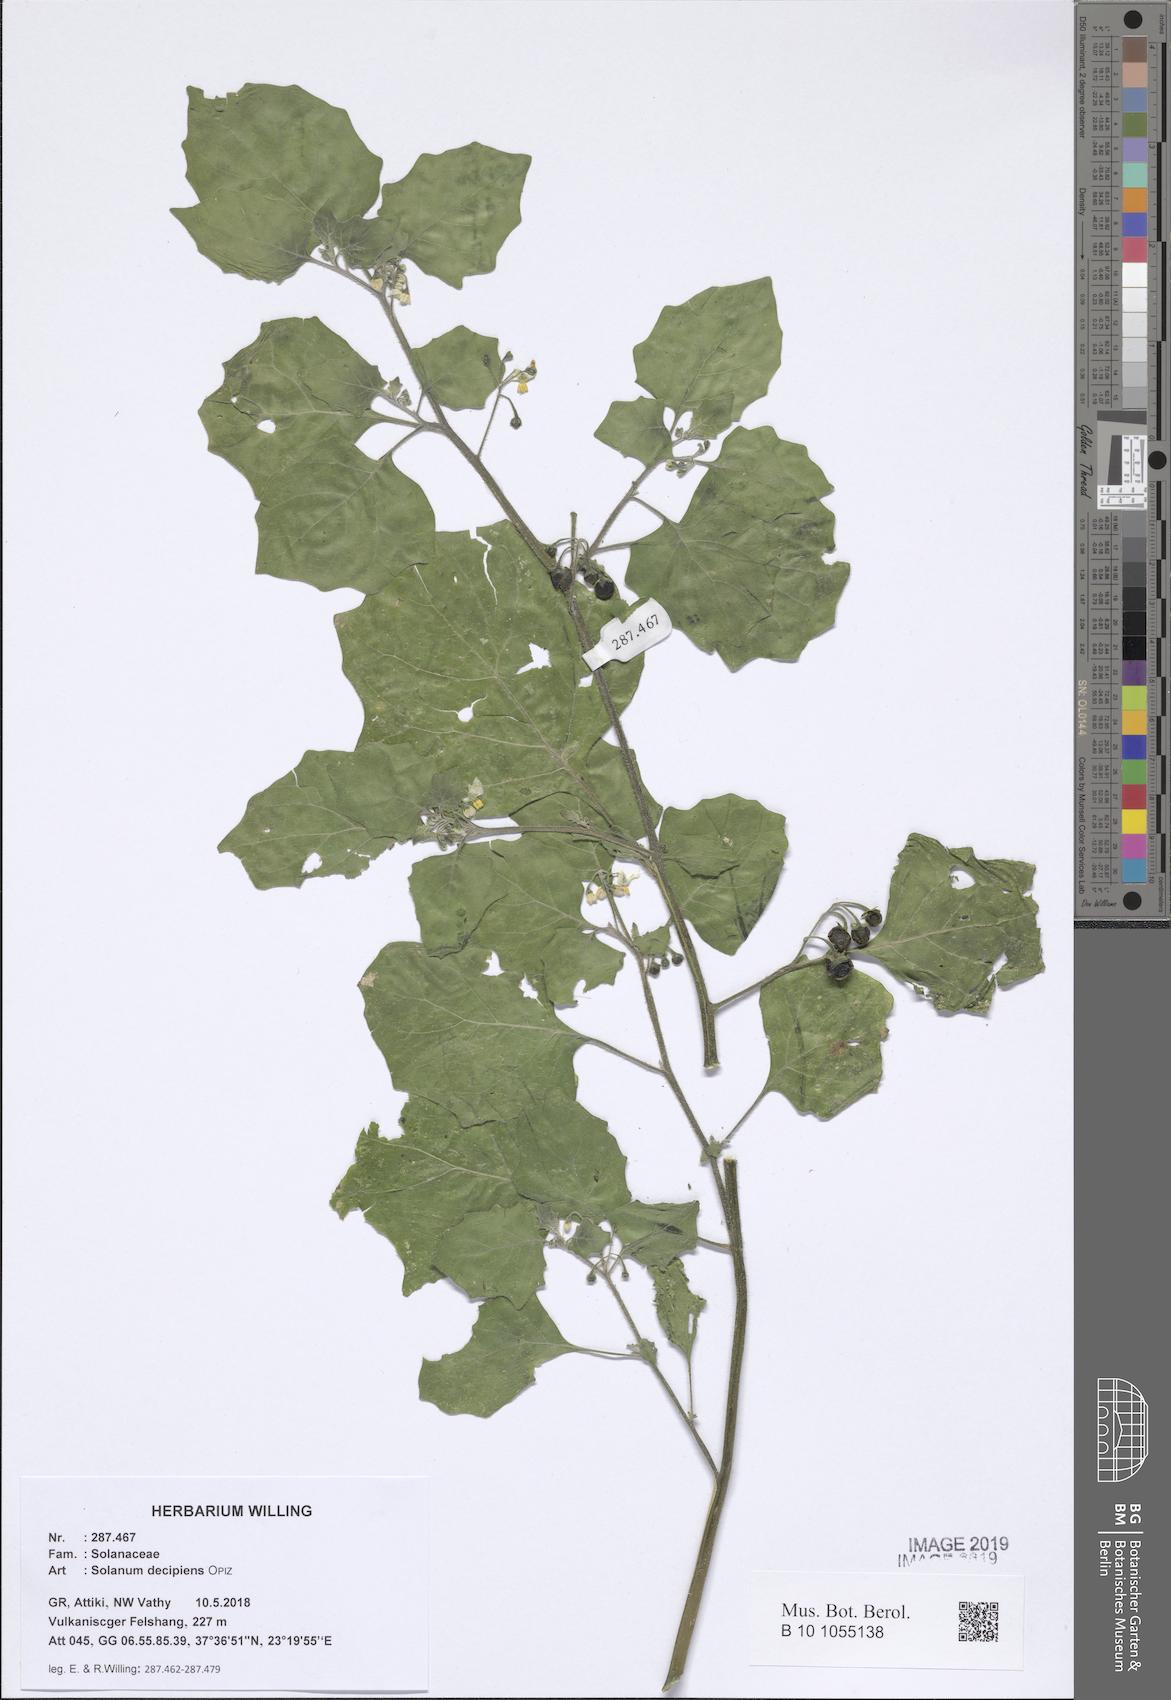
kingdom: Plantae
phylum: Tracheophyta
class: Magnoliopsida
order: Brassicales
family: Resedaceae
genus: Reseda
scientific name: Reseda lutea
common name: Wild mignonette
